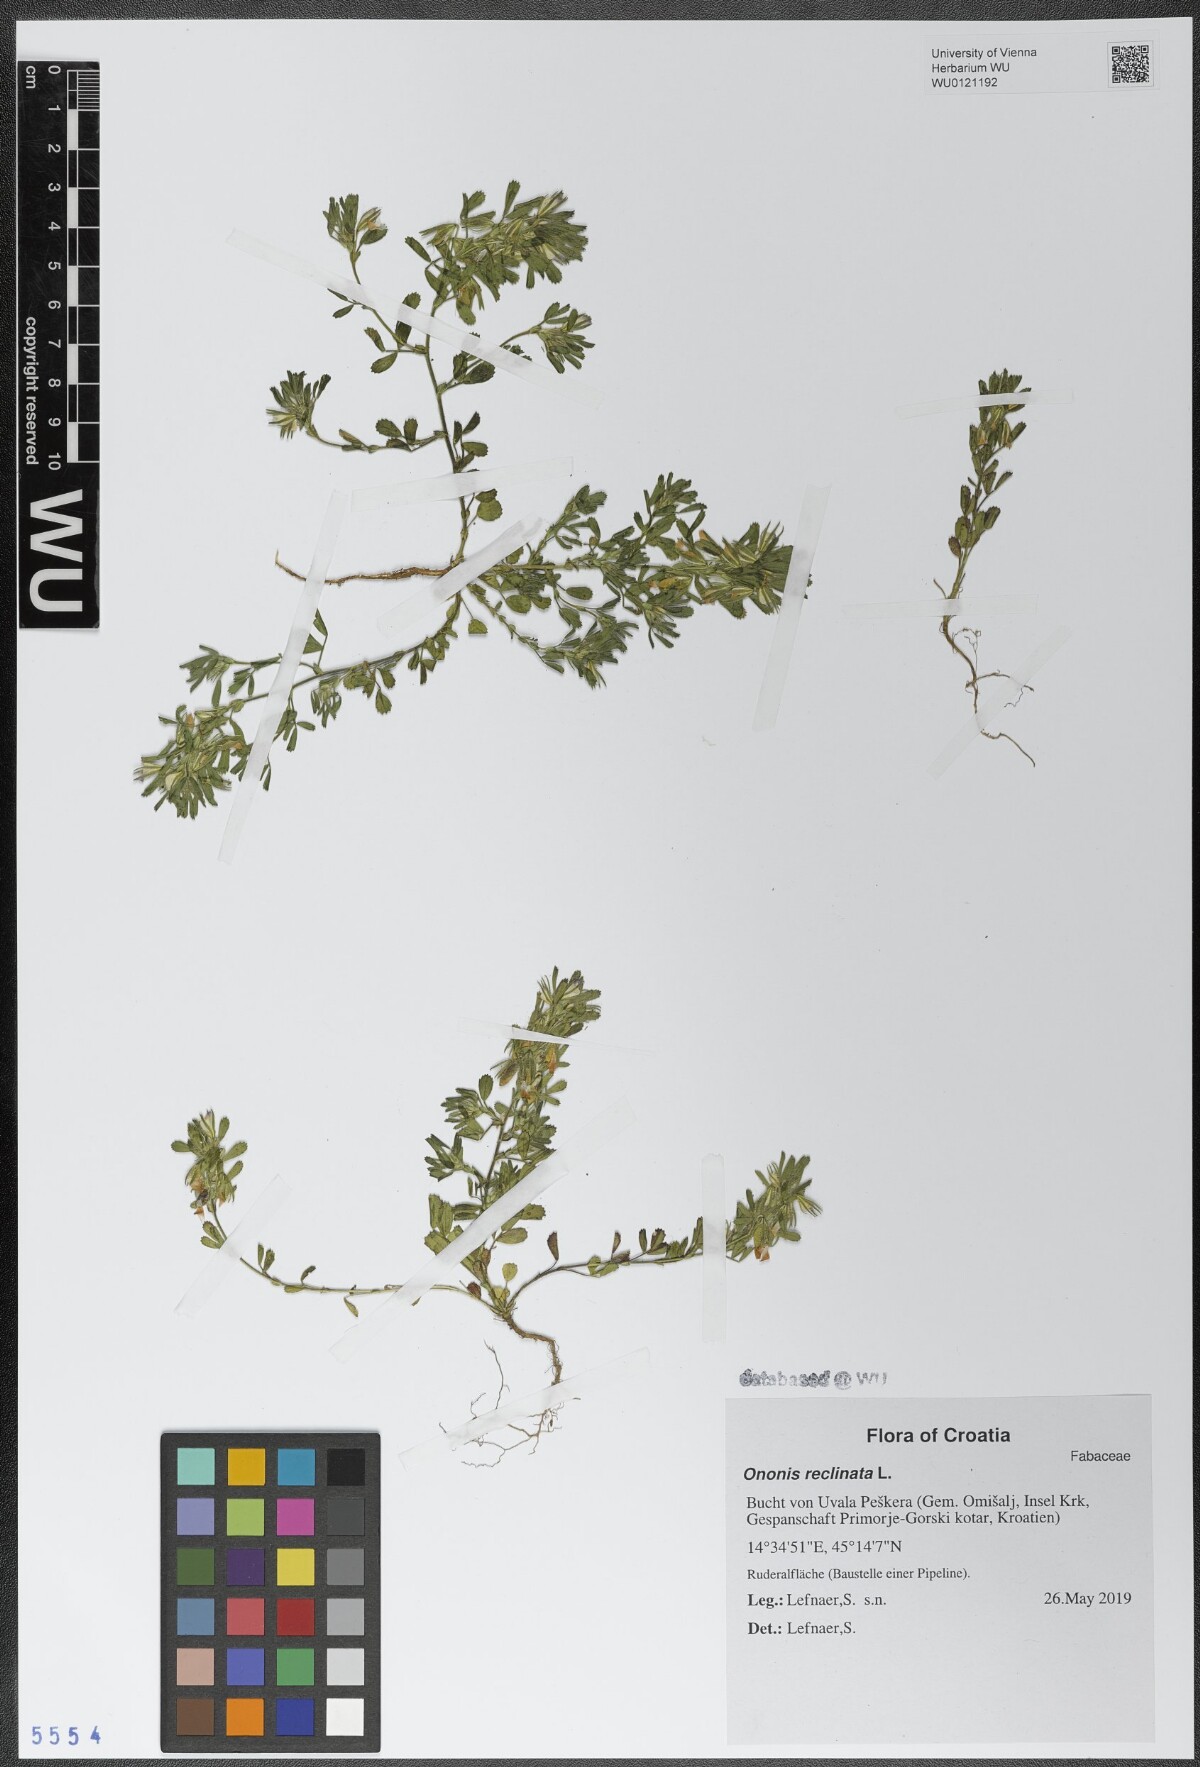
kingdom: Plantae
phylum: Tracheophyta
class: Magnoliopsida
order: Fabales
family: Fabaceae
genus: Ononis
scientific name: Ononis reclinata
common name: Small restharrow
